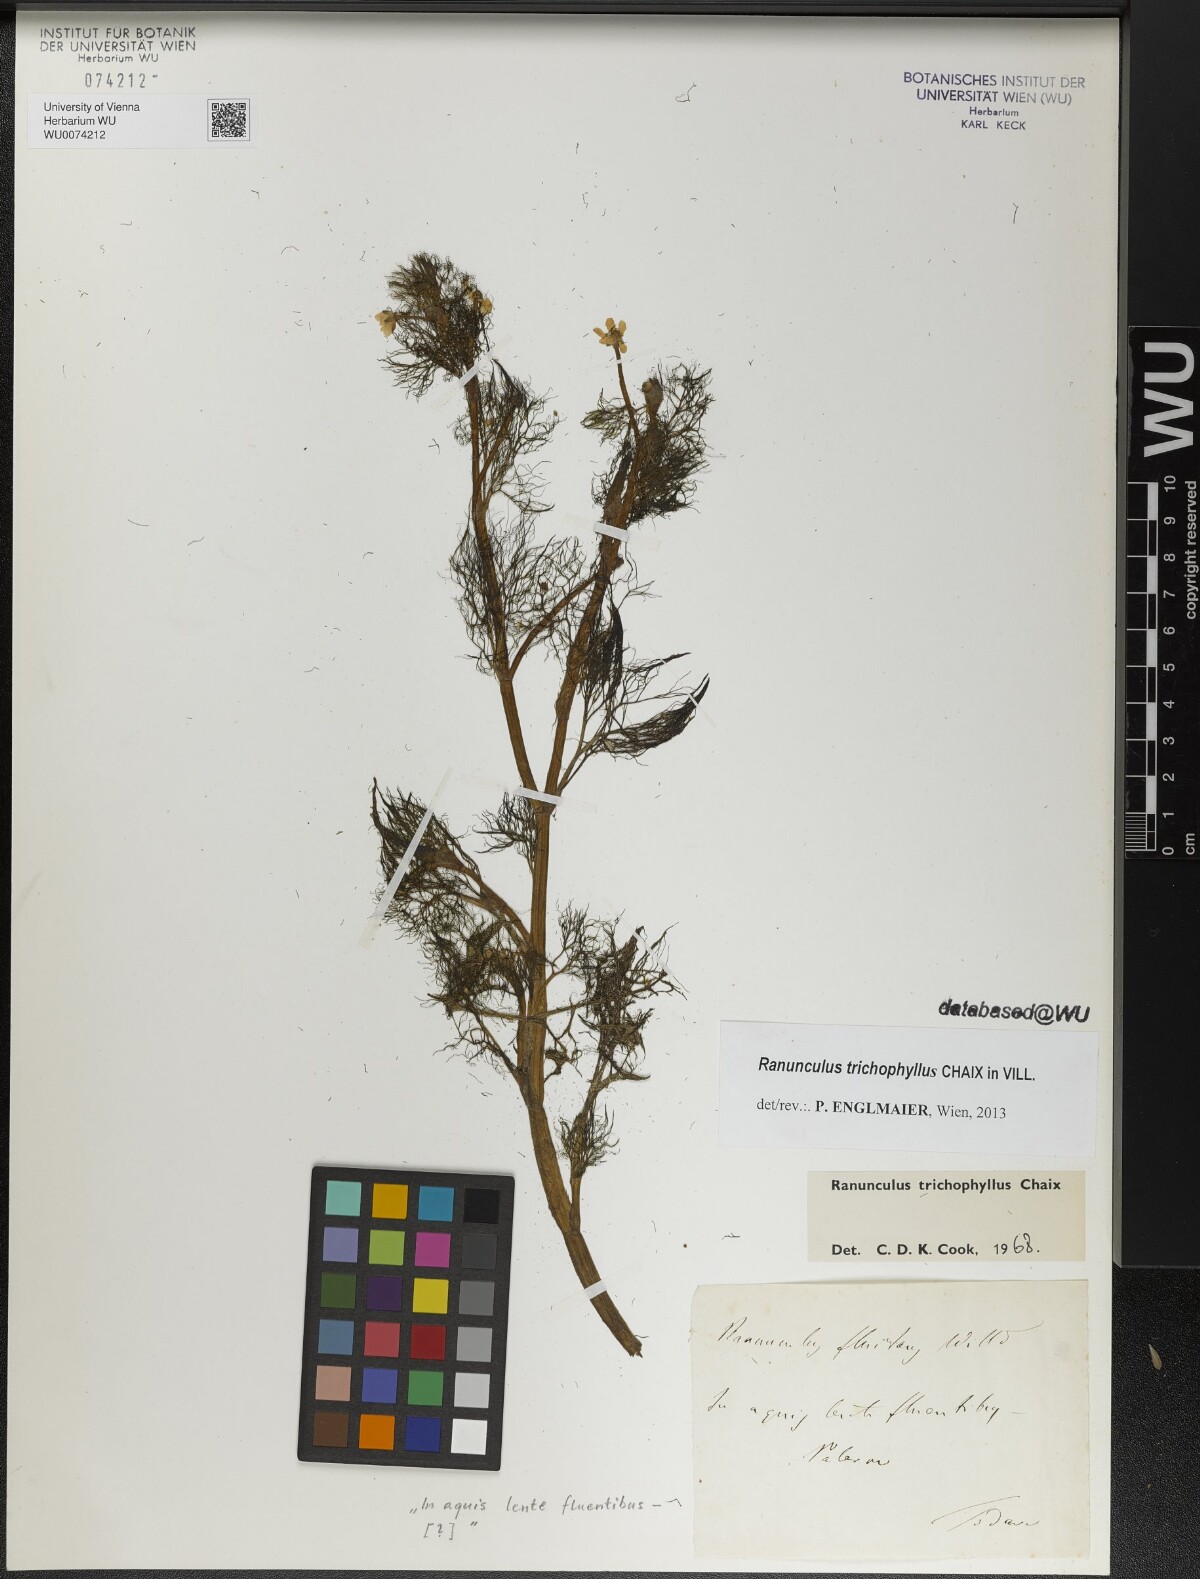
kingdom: Plantae
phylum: Tracheophyta
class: Magnoliopsida
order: Ranunculales
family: Ranunculaceae
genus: Ranunculus
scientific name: Ranunculus trichophyllus
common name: Thread-leaved water-crowfoot
